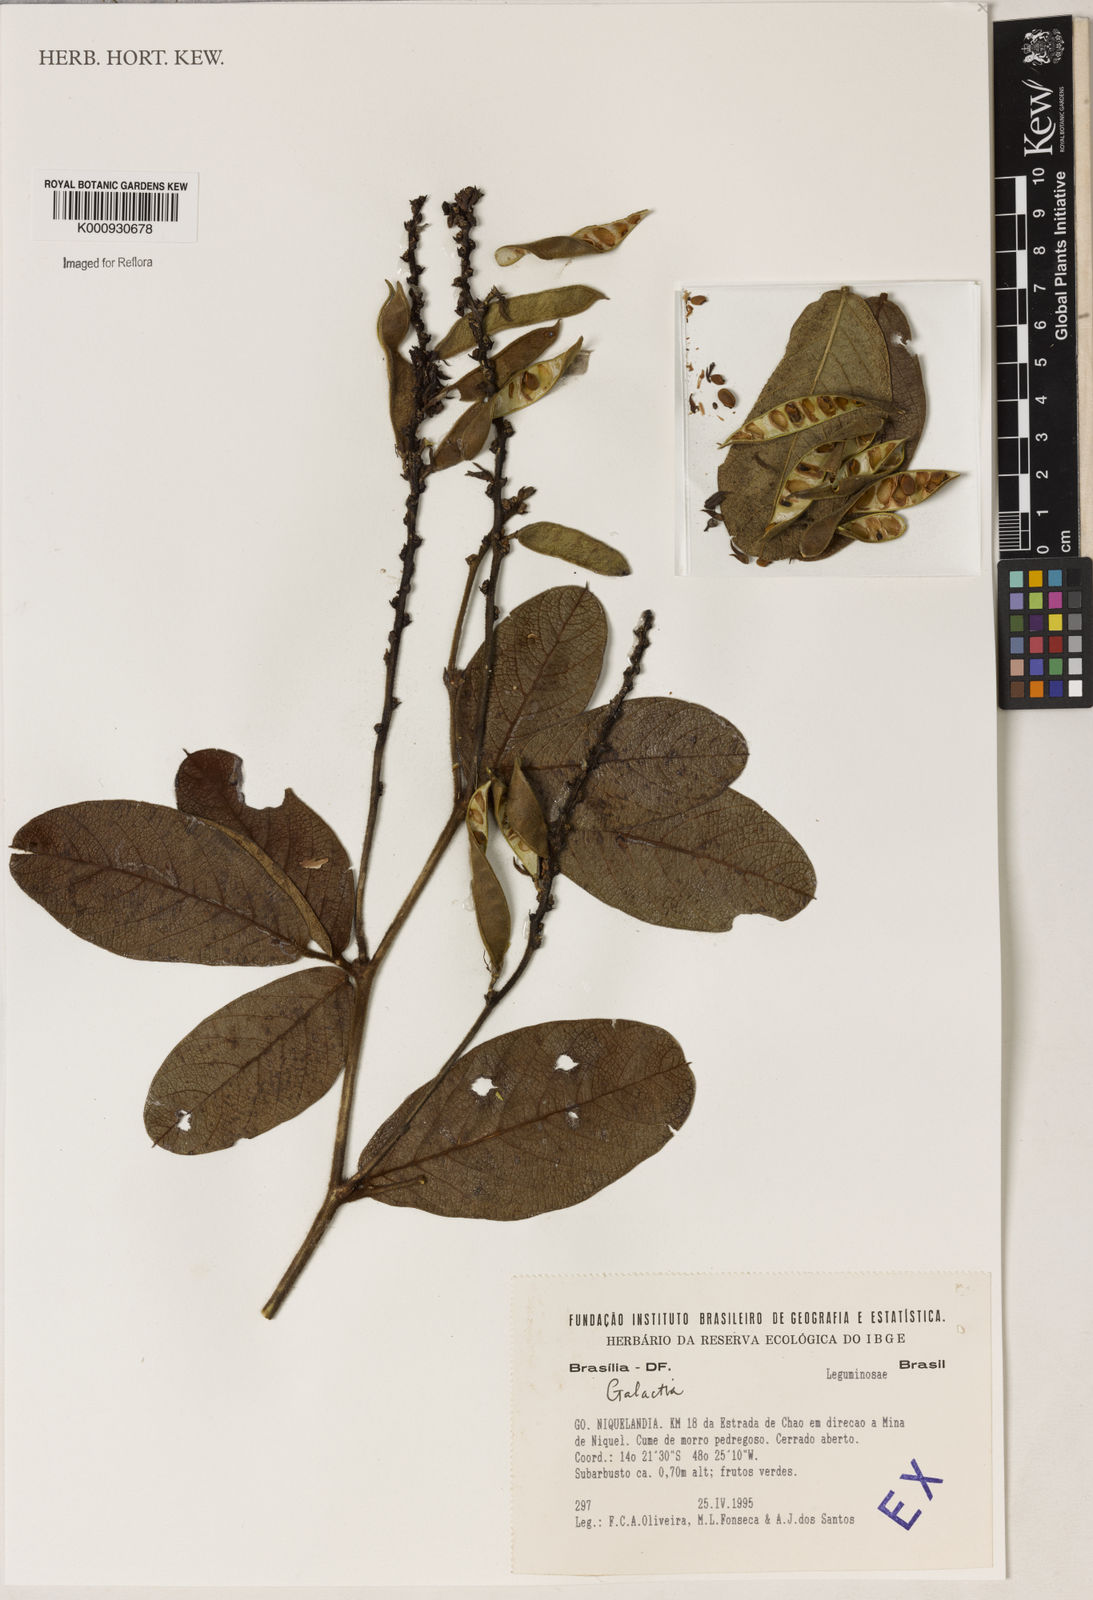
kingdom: Plantae
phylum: Tracheophyta
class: Magnoliopsida
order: Fabales
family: Fabaceae
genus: Galactia
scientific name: Galactia
